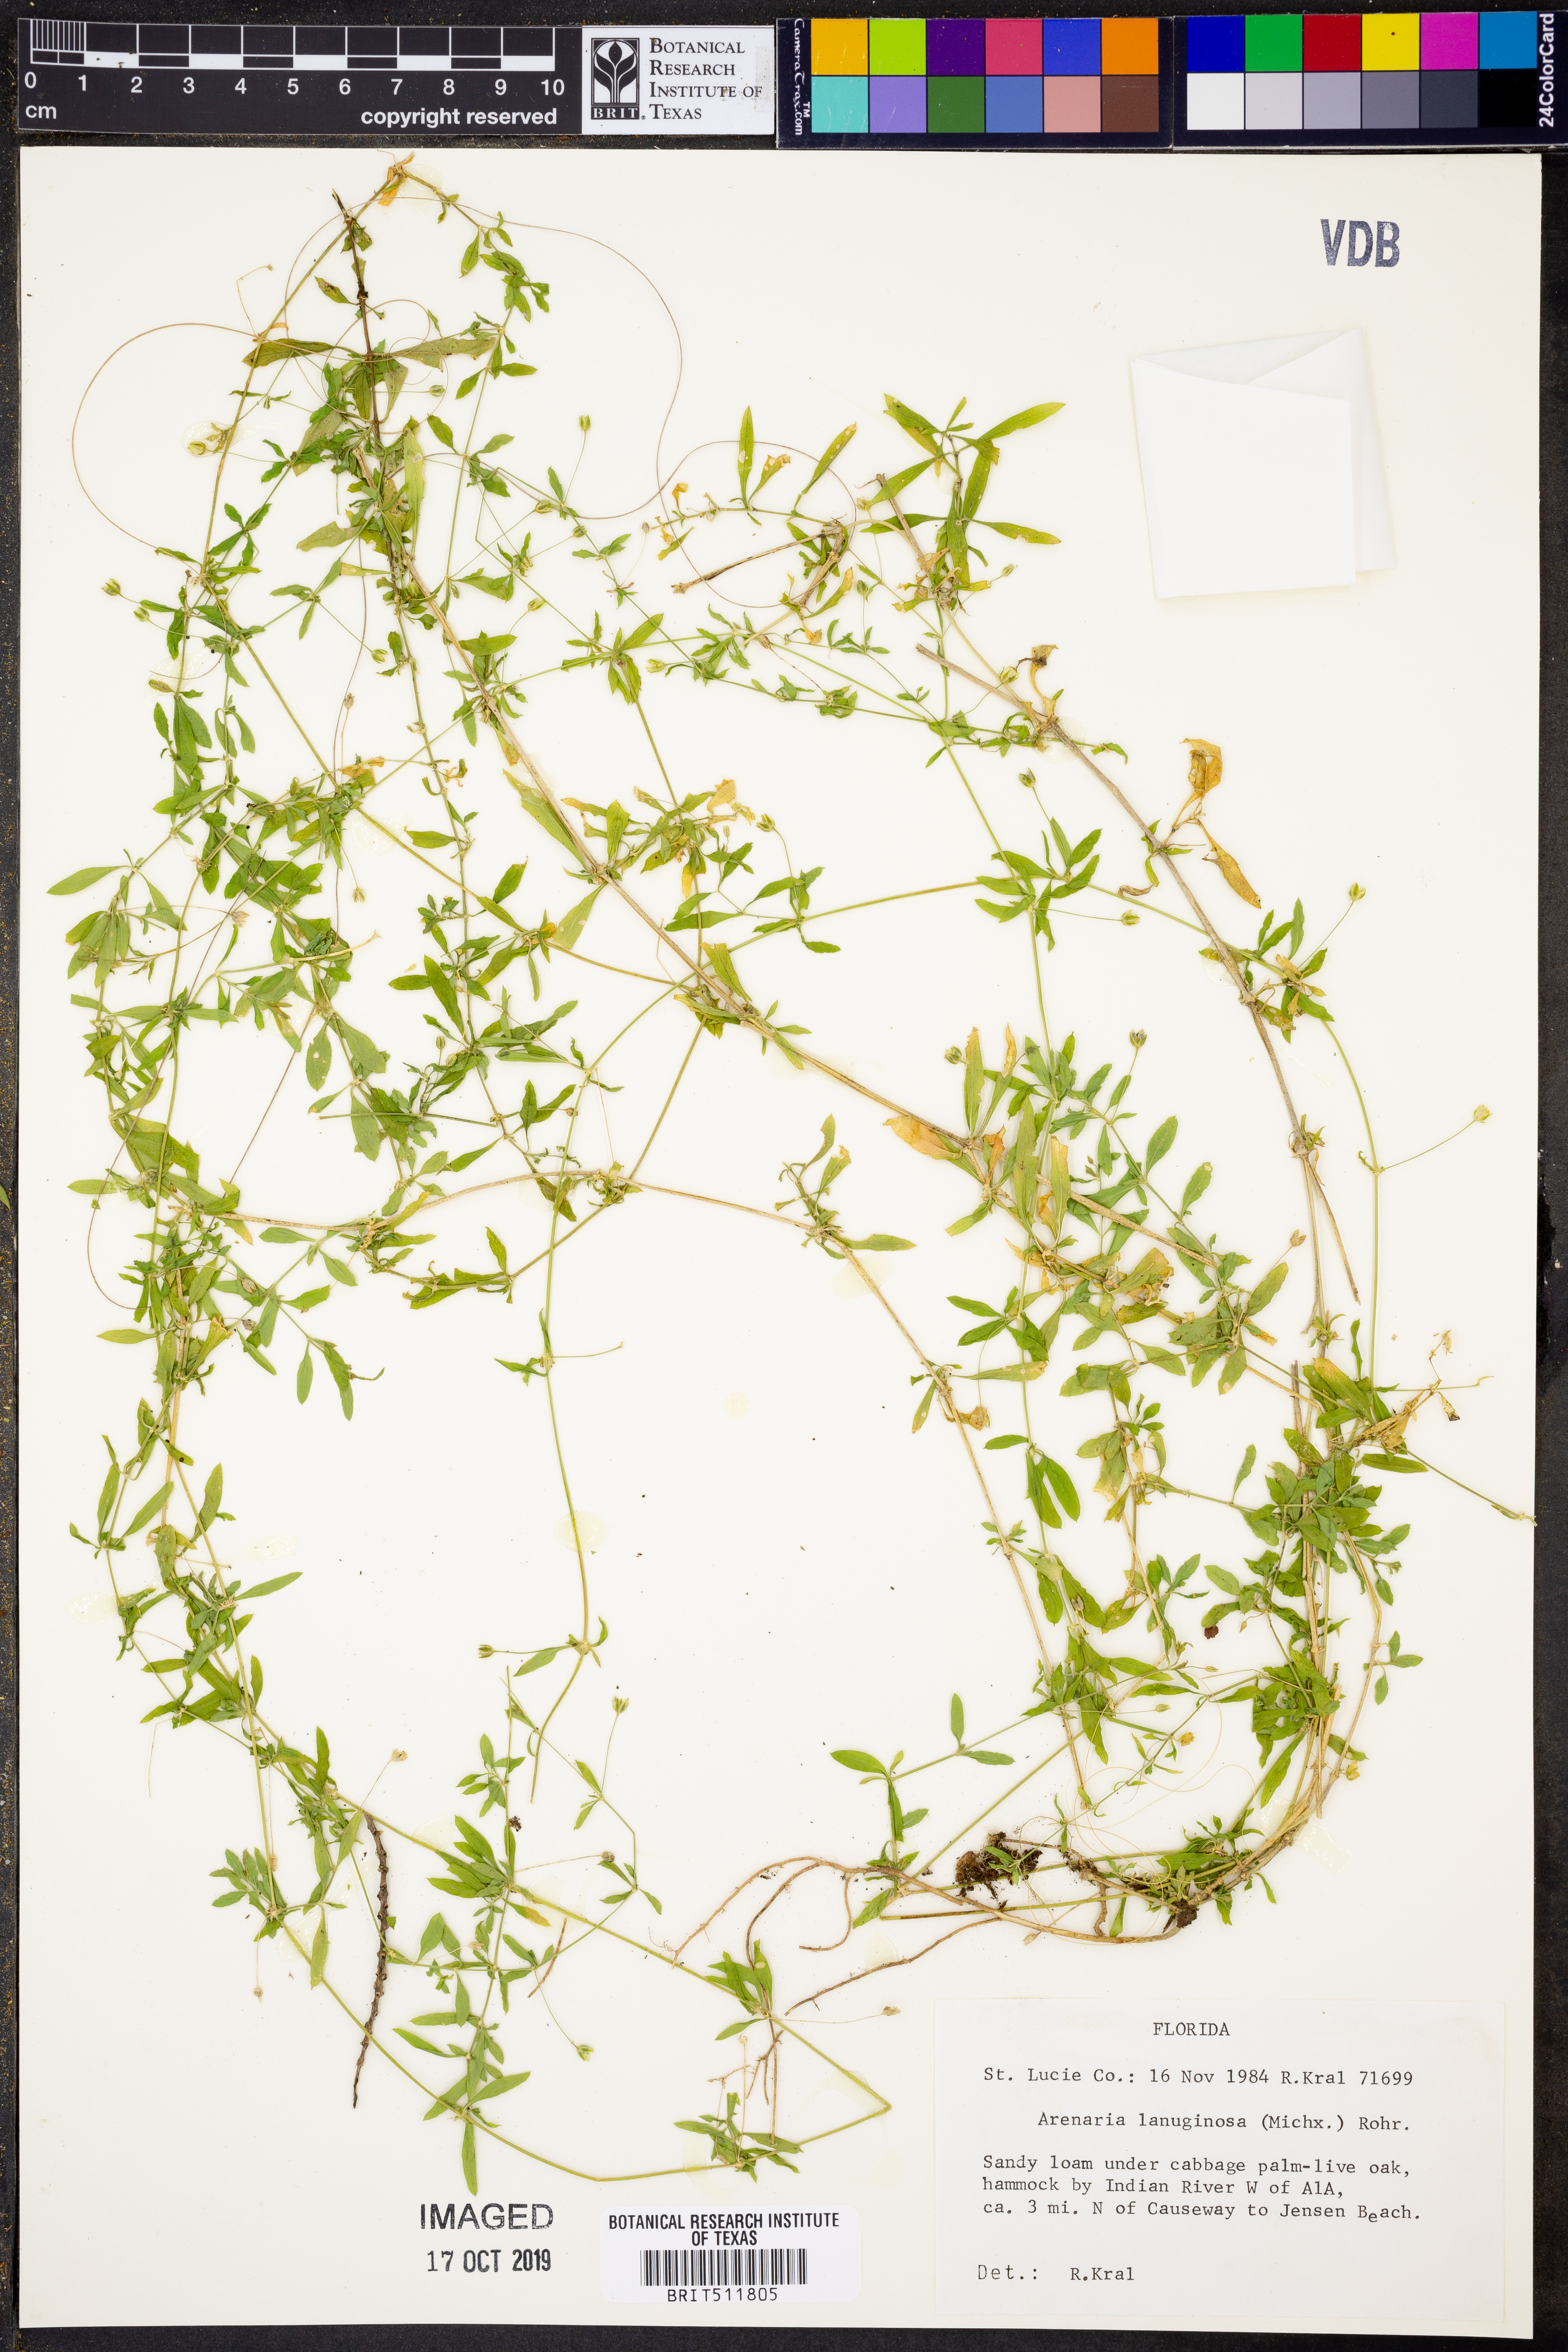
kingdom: Plantae
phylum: Tracheophyta
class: Magnoliopsida
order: Caryophyllales
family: Caryophyllaceae
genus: Arenaria
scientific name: Arenaria lanuginosa
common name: Spread sandwort
